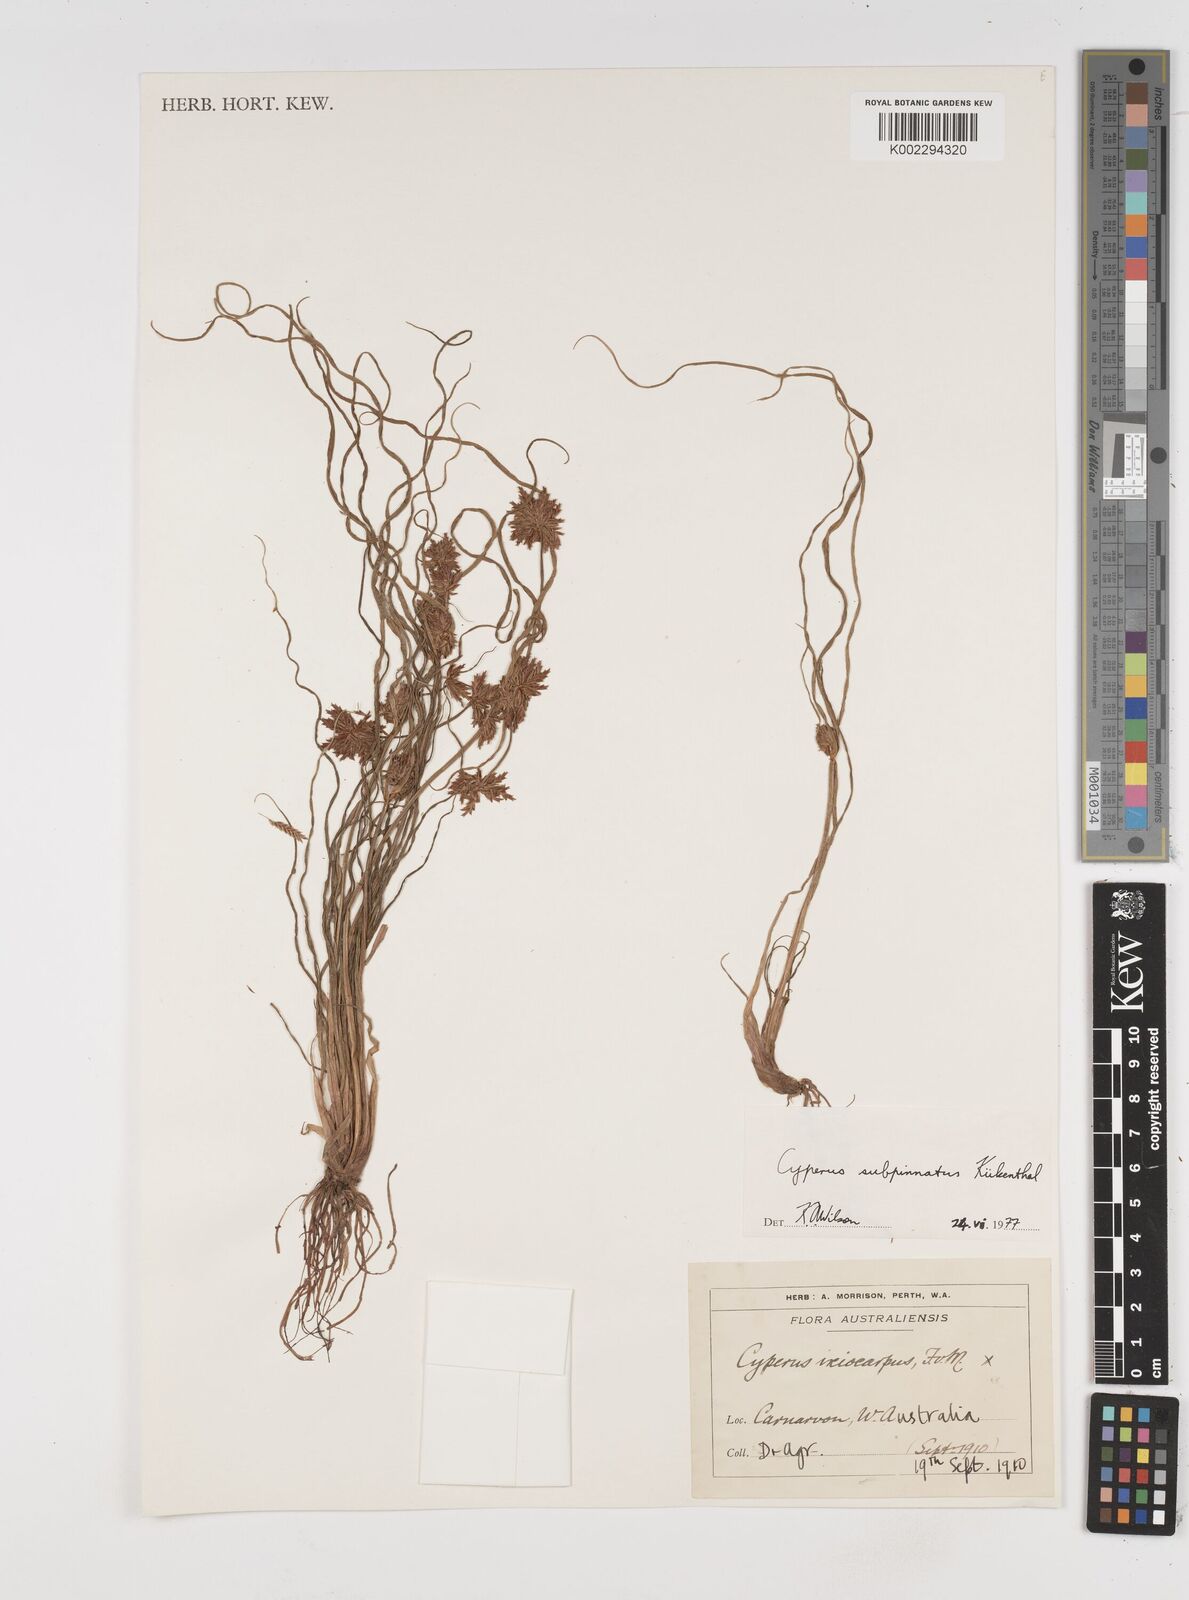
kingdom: Plantae
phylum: Tracheophyta
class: Liliopsida
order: Poales
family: Cyperaceae
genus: Cyperus
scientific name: Cyperus rigidellus
